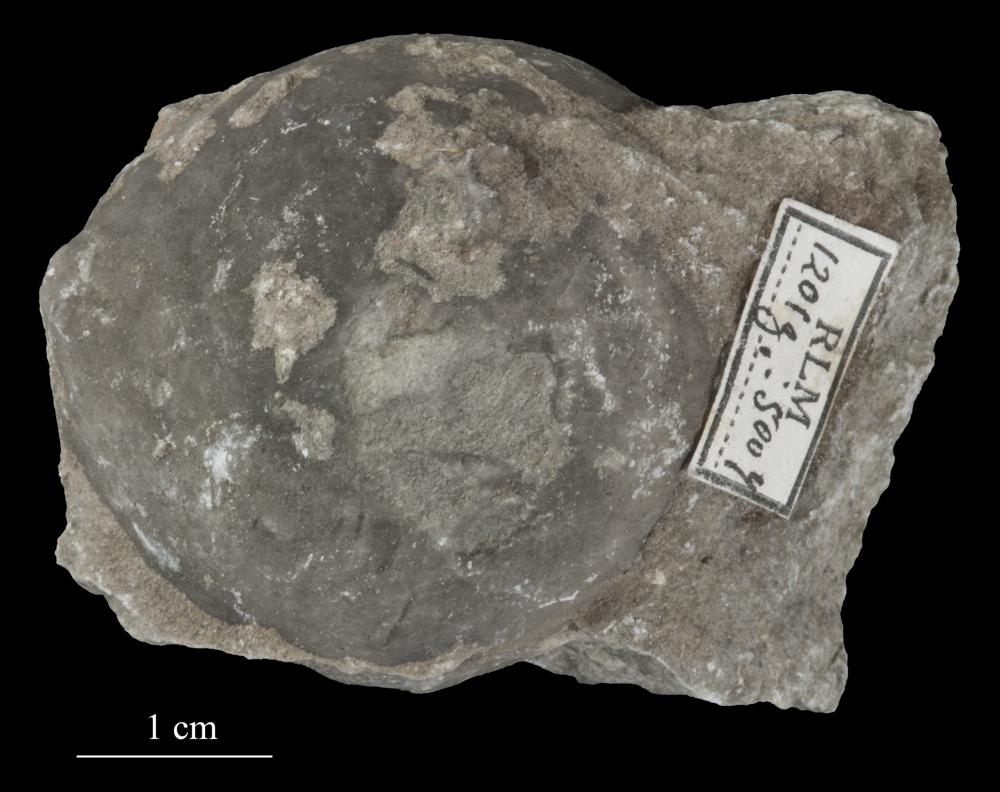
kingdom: Animalia
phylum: Echinodermata
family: Echinosphaeritidae
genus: Echinosphaerites
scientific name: Echinosphaerites Echinus aurantium
